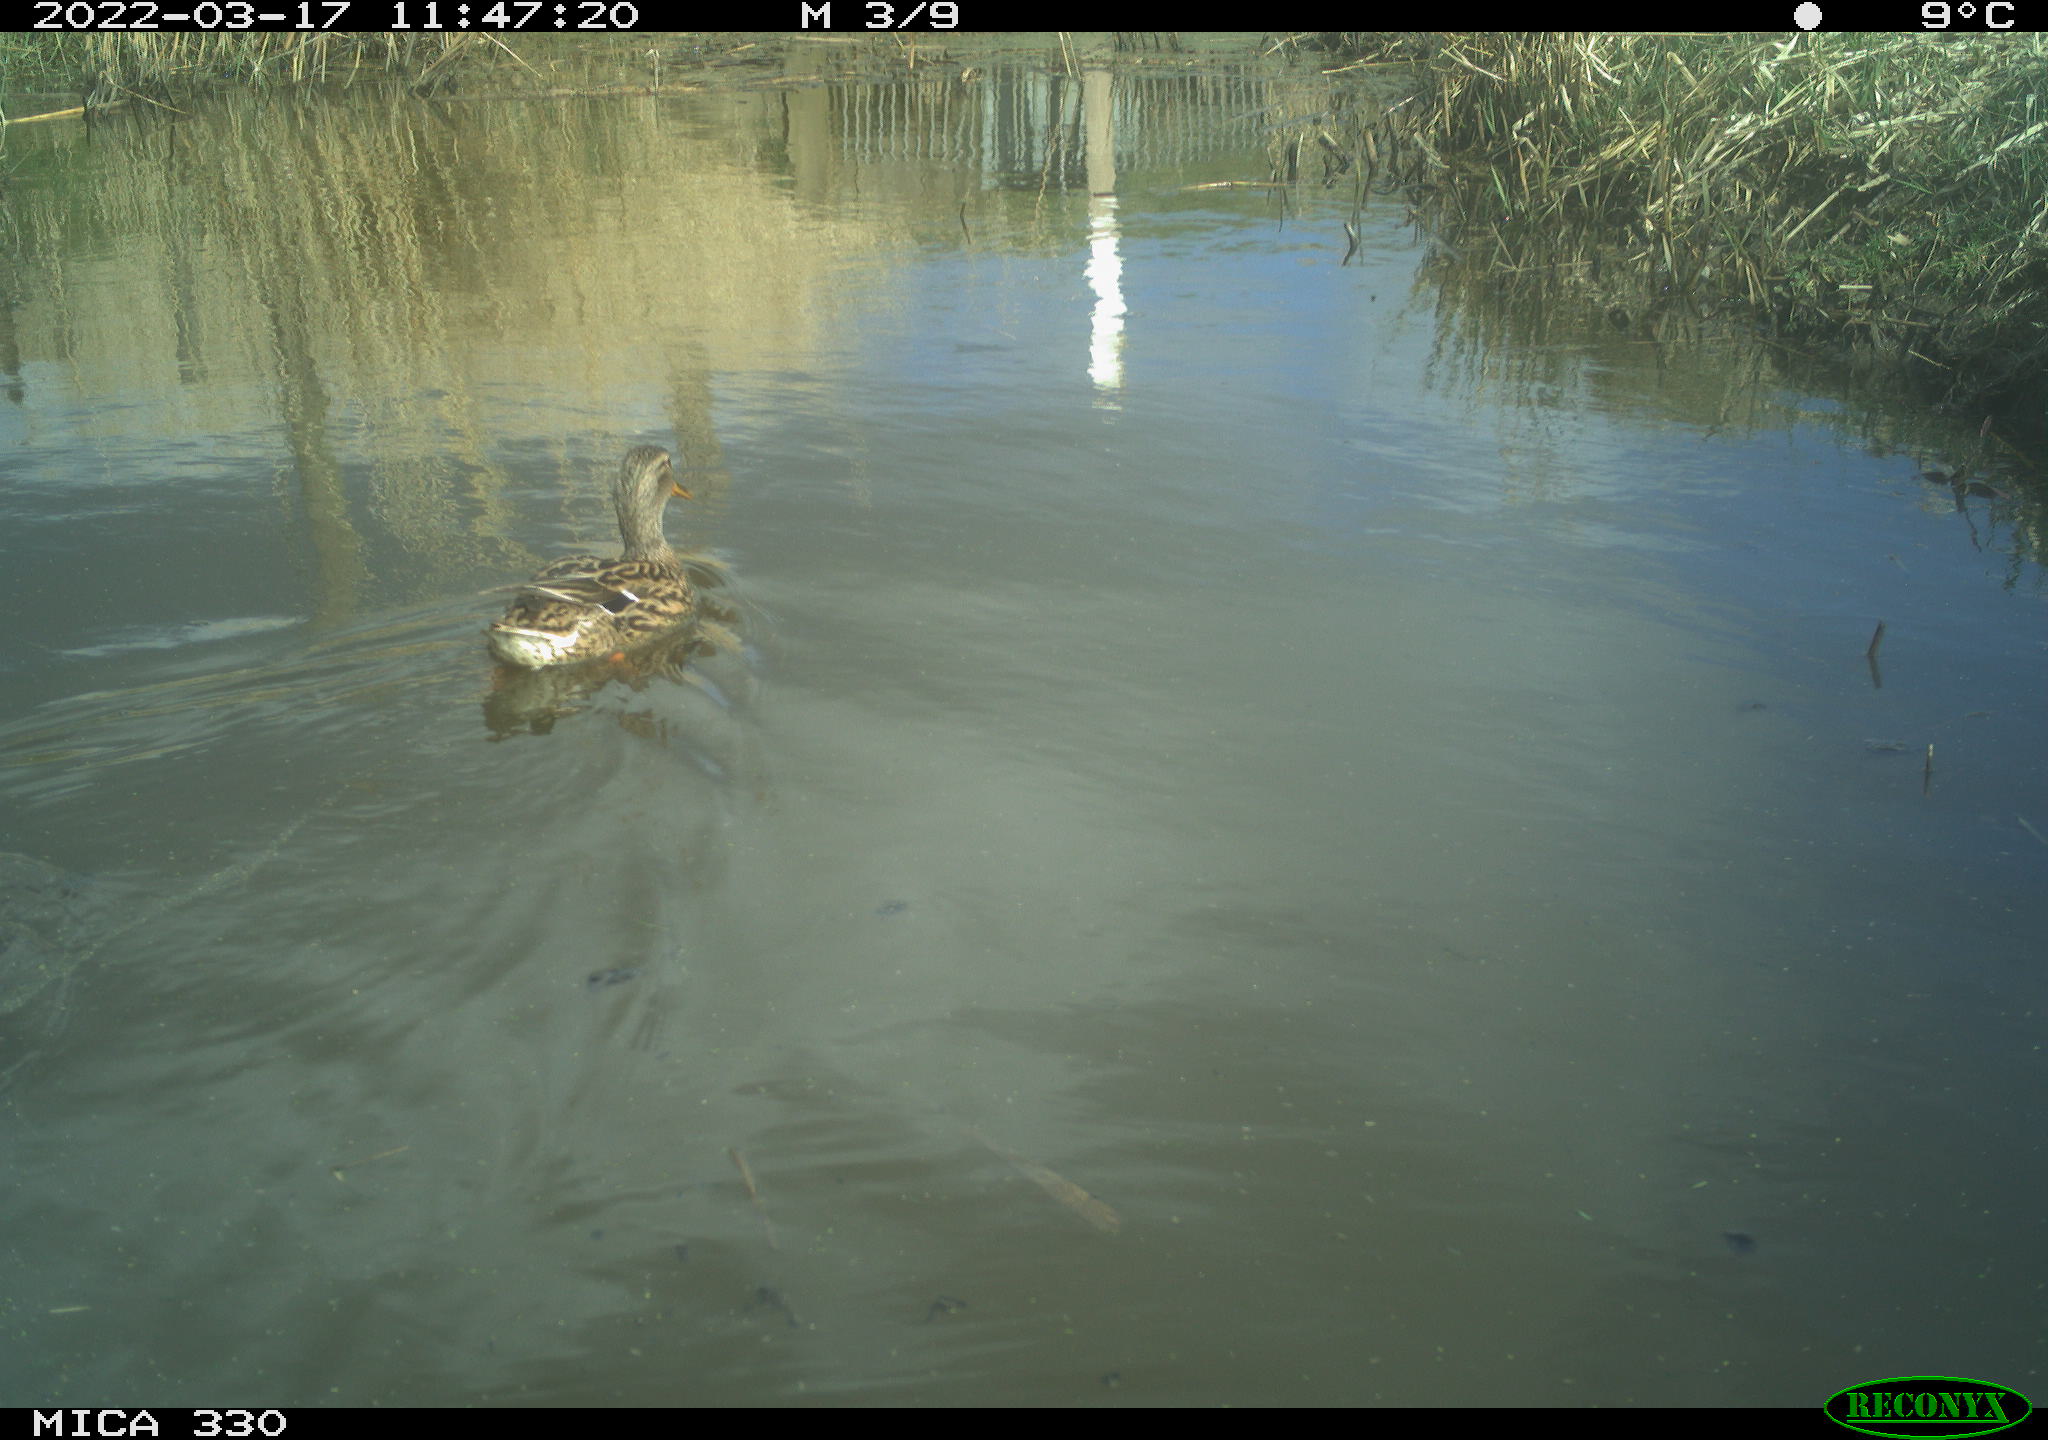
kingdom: Animalia
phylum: Chordata
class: Aves
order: Anseriformes
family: Anatidae
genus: Anas
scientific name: Anas platyrhynchos
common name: Mallard
